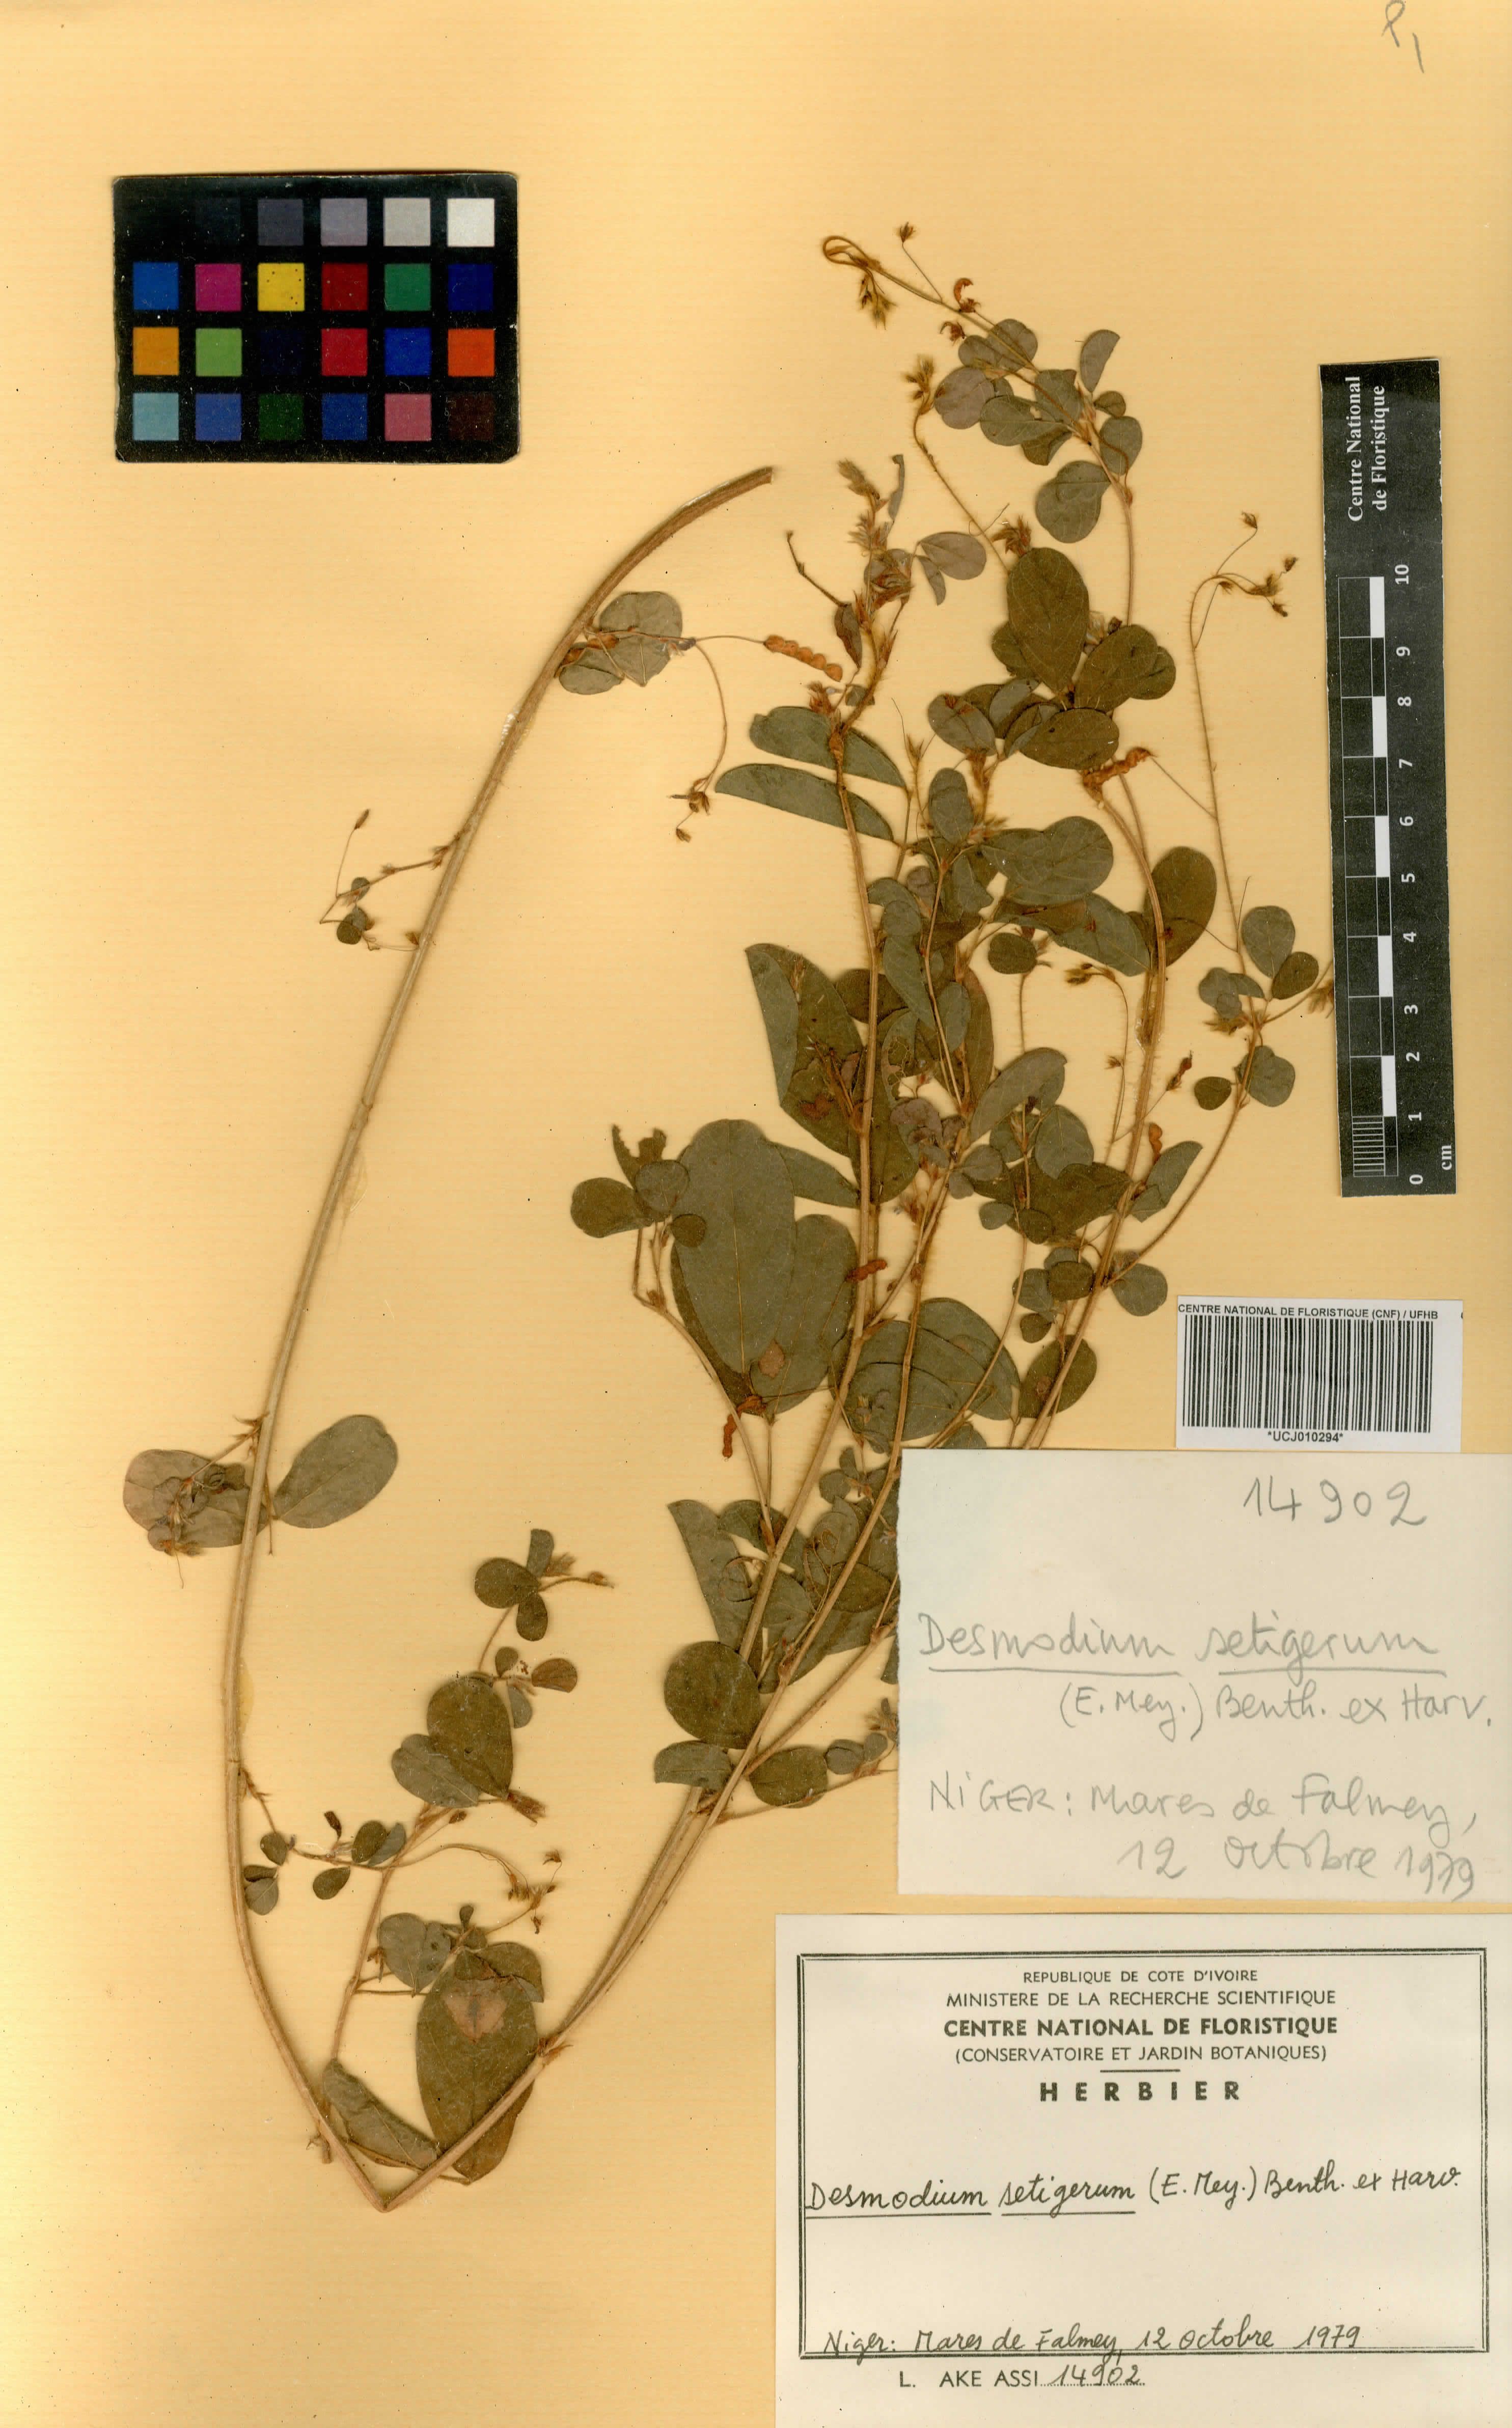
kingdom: Plantae
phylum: Tracheophyta
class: Magnoliopsida
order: Fabales
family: Fabaceae
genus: Grona
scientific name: Grona setigera
